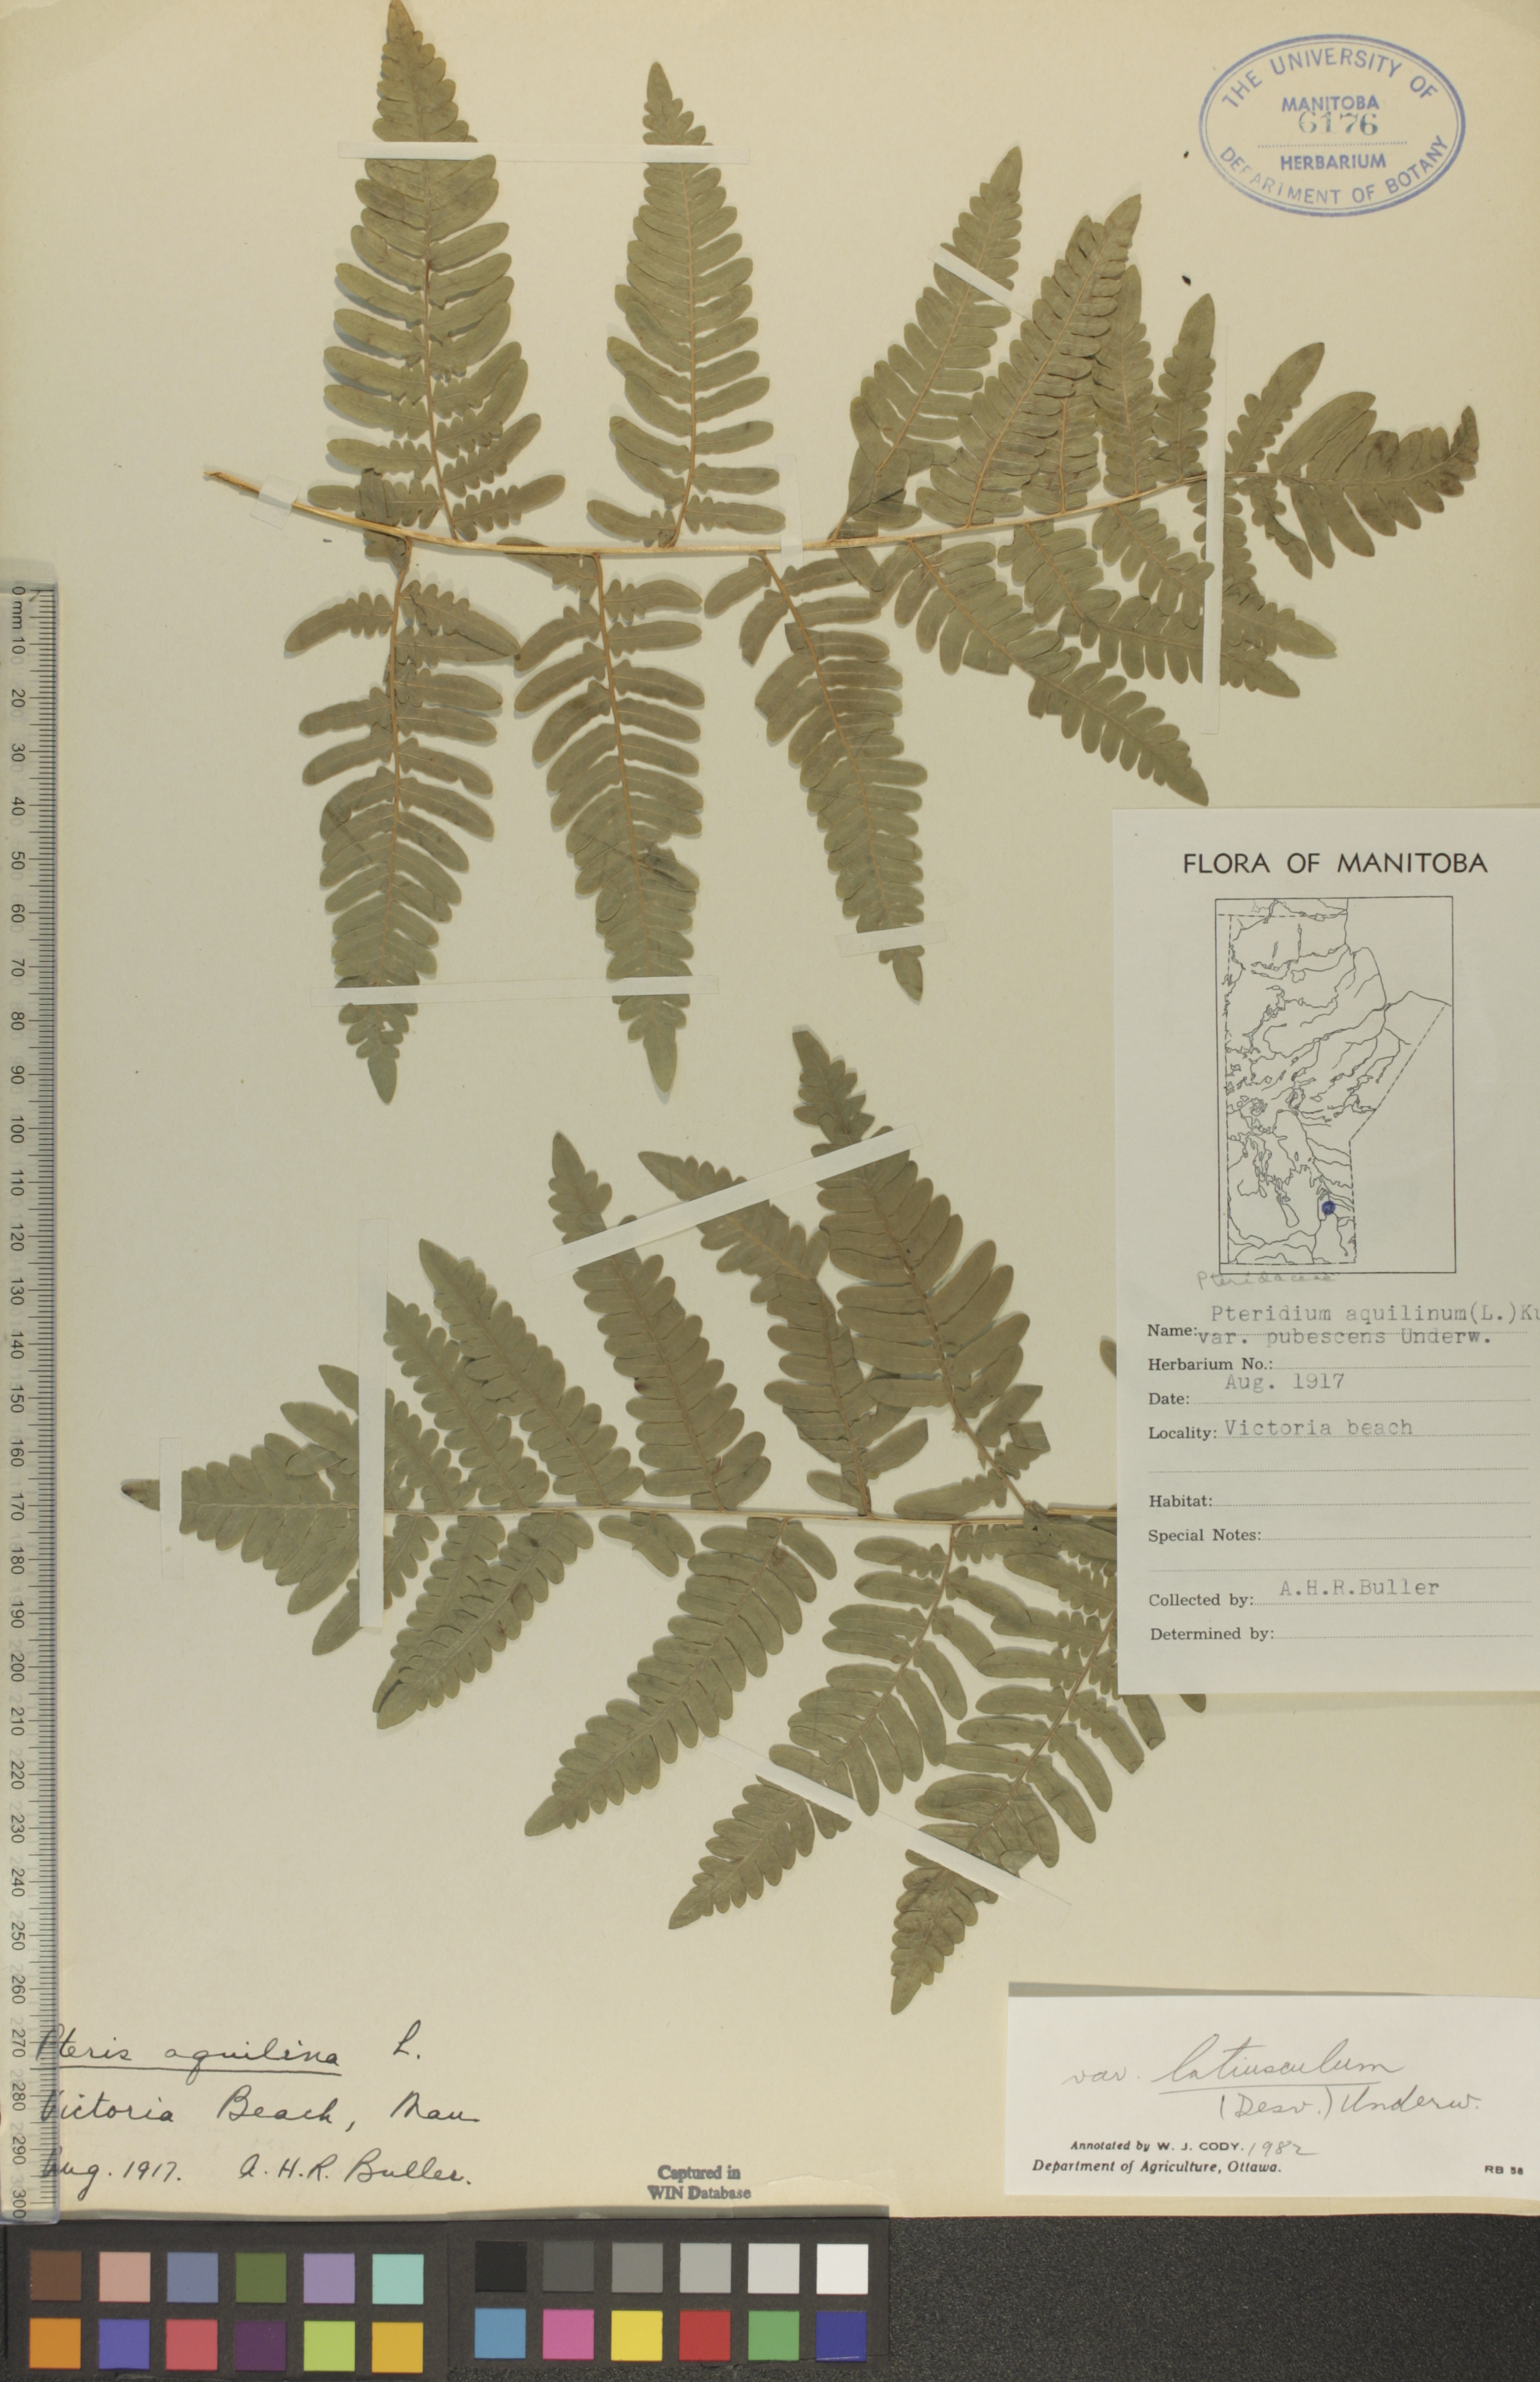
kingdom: Plantae
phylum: Tracheophyta
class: Polypodiopsida
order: Polypodiales
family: Dennstaedtiaceae
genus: Pteridium
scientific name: Pteridium aquilinum
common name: Bracken
